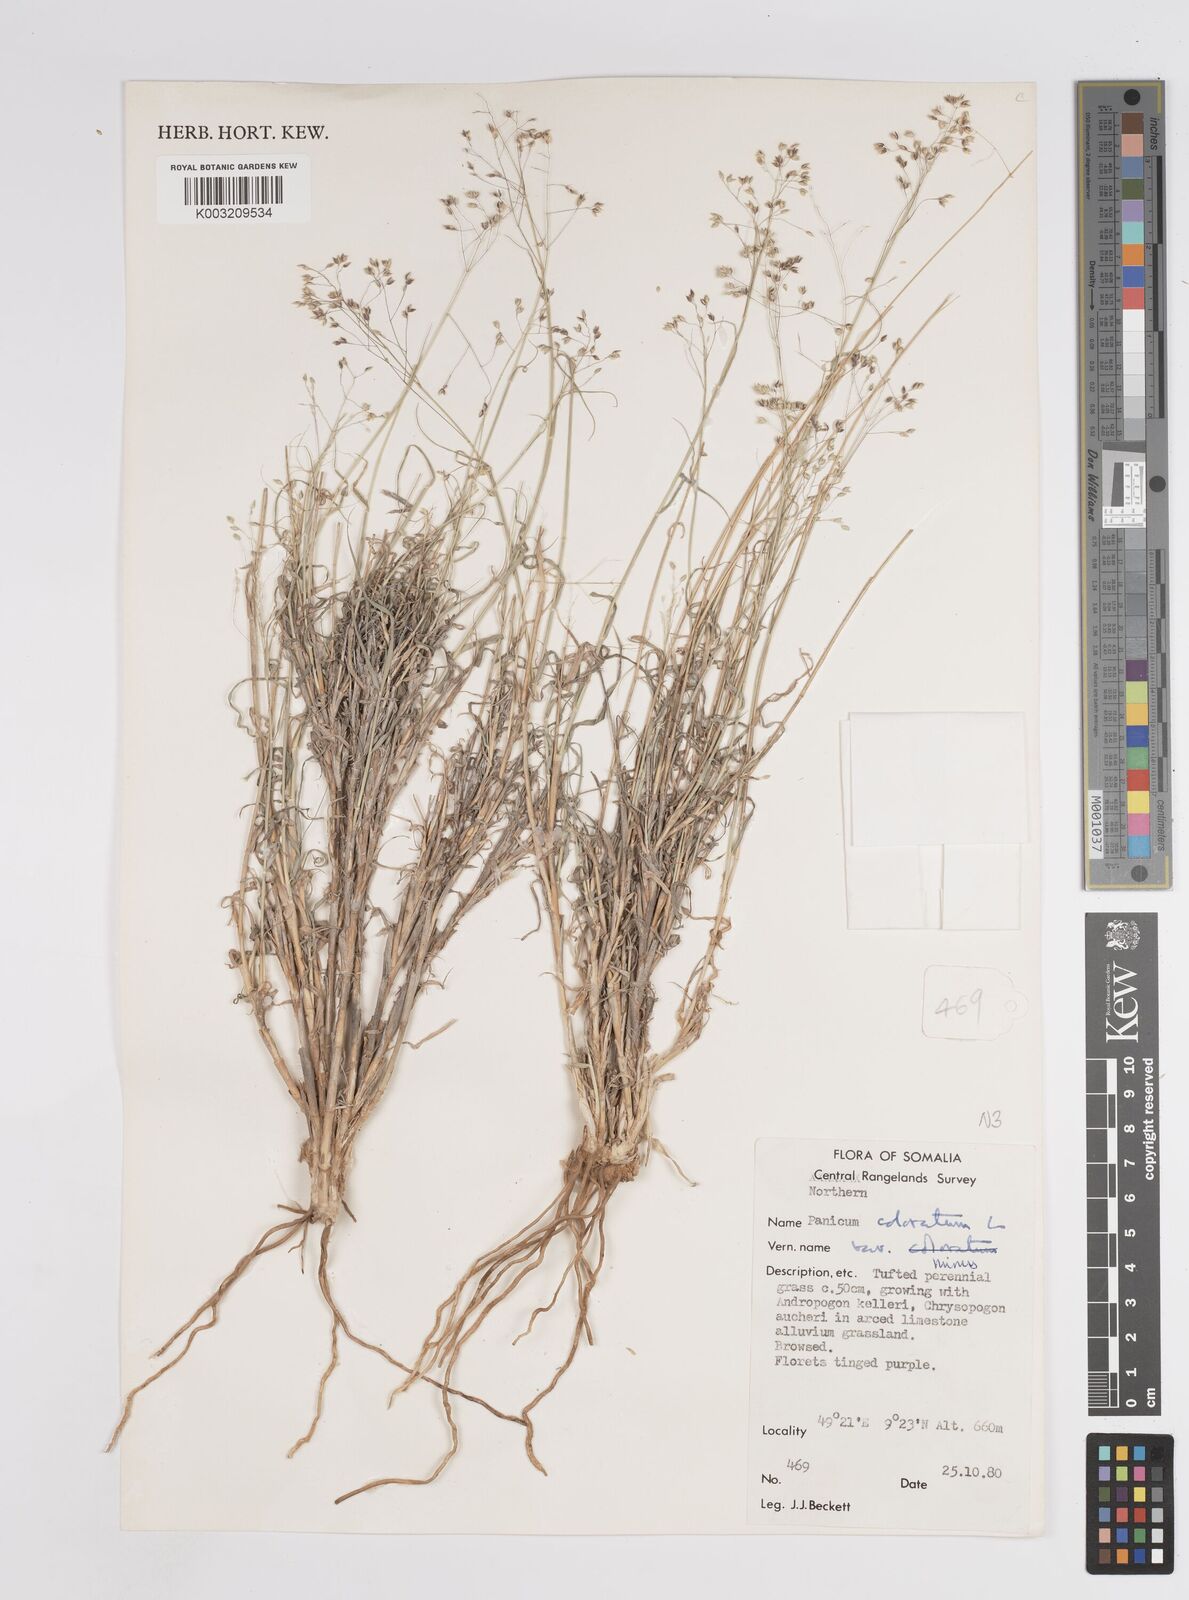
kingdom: Plantae
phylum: Tracheophyta
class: Liliopsida
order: Poales
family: Poaceae
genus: Panicum
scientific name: Panicum coloratum
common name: Kleingrass
